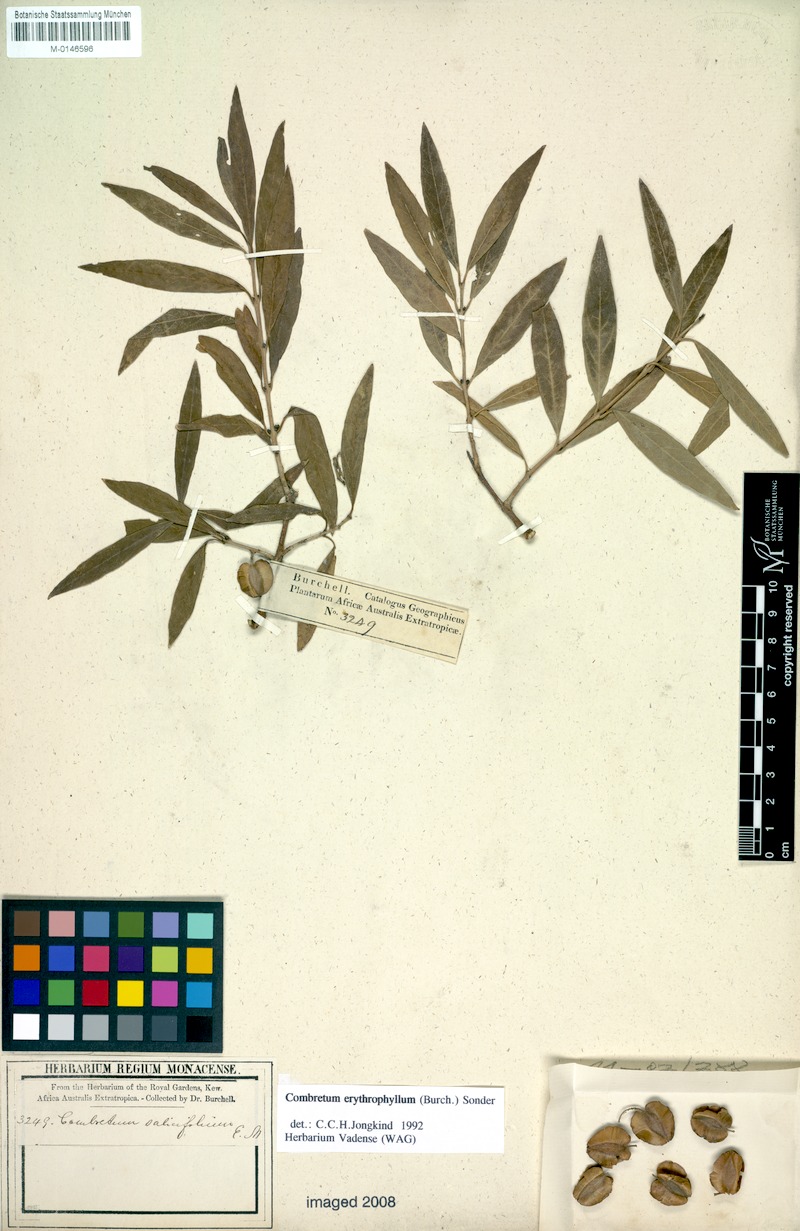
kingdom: Plantae
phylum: Tracheophyta
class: Magnoliopsida
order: Myrtales
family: Combretaceae
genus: Combretum
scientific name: Combretum erythrophyllum
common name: Bush-willow
